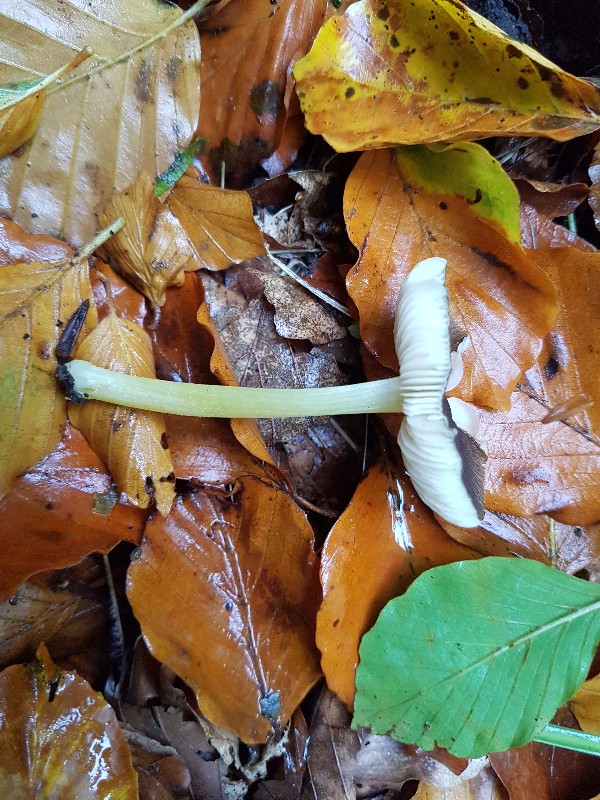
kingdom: Fungi
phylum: Basidiomycota
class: Agaricomycetes
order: Agaricales
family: Pluteaceae
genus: Pluteus
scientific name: Pluteus romellii
